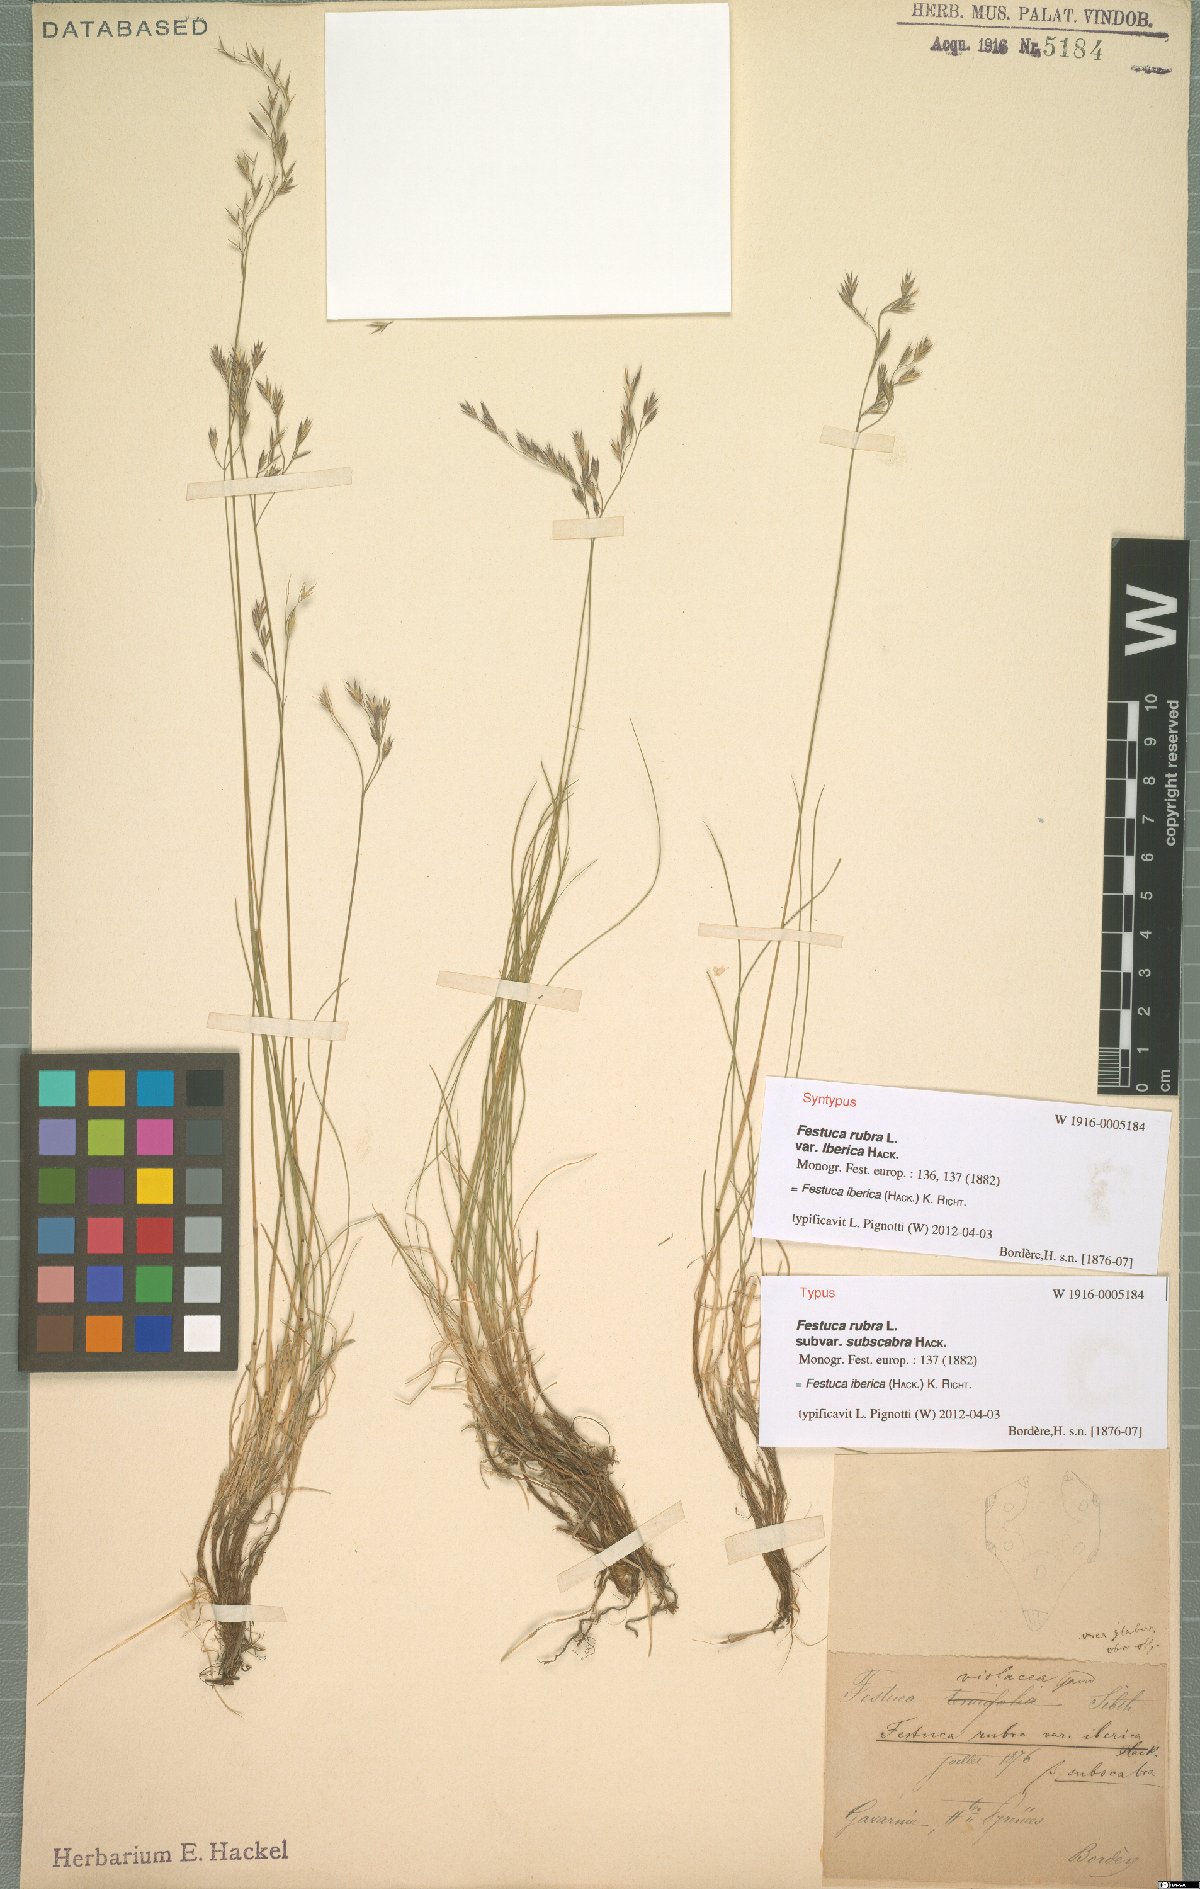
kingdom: Plantae
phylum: Tracheophyta
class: Liliopsida
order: Poales
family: Poaceae
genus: Festuca
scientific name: Festuca iberica
